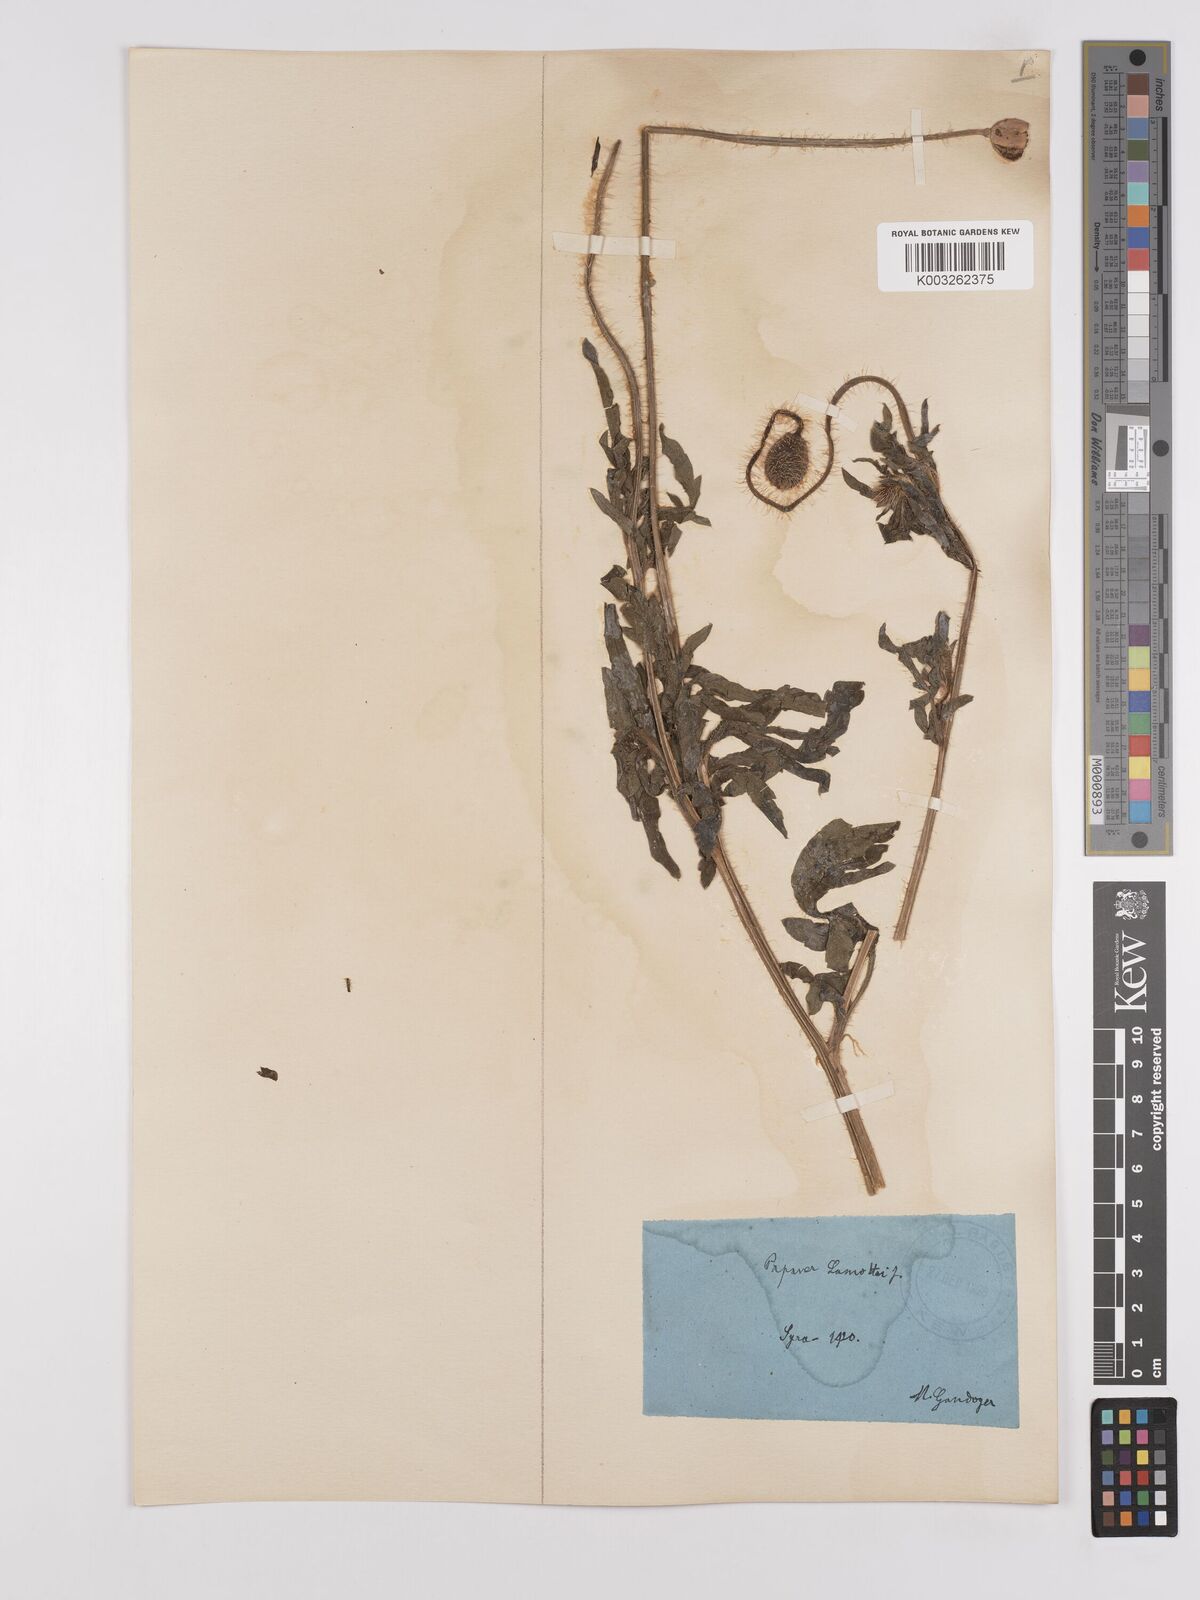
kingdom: Plantae
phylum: Tracheophyta
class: Magnoliopsida
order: Ranunculales
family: Papaveraceae
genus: Papaver
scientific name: Papaver rhoeas
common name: Corn poppy
